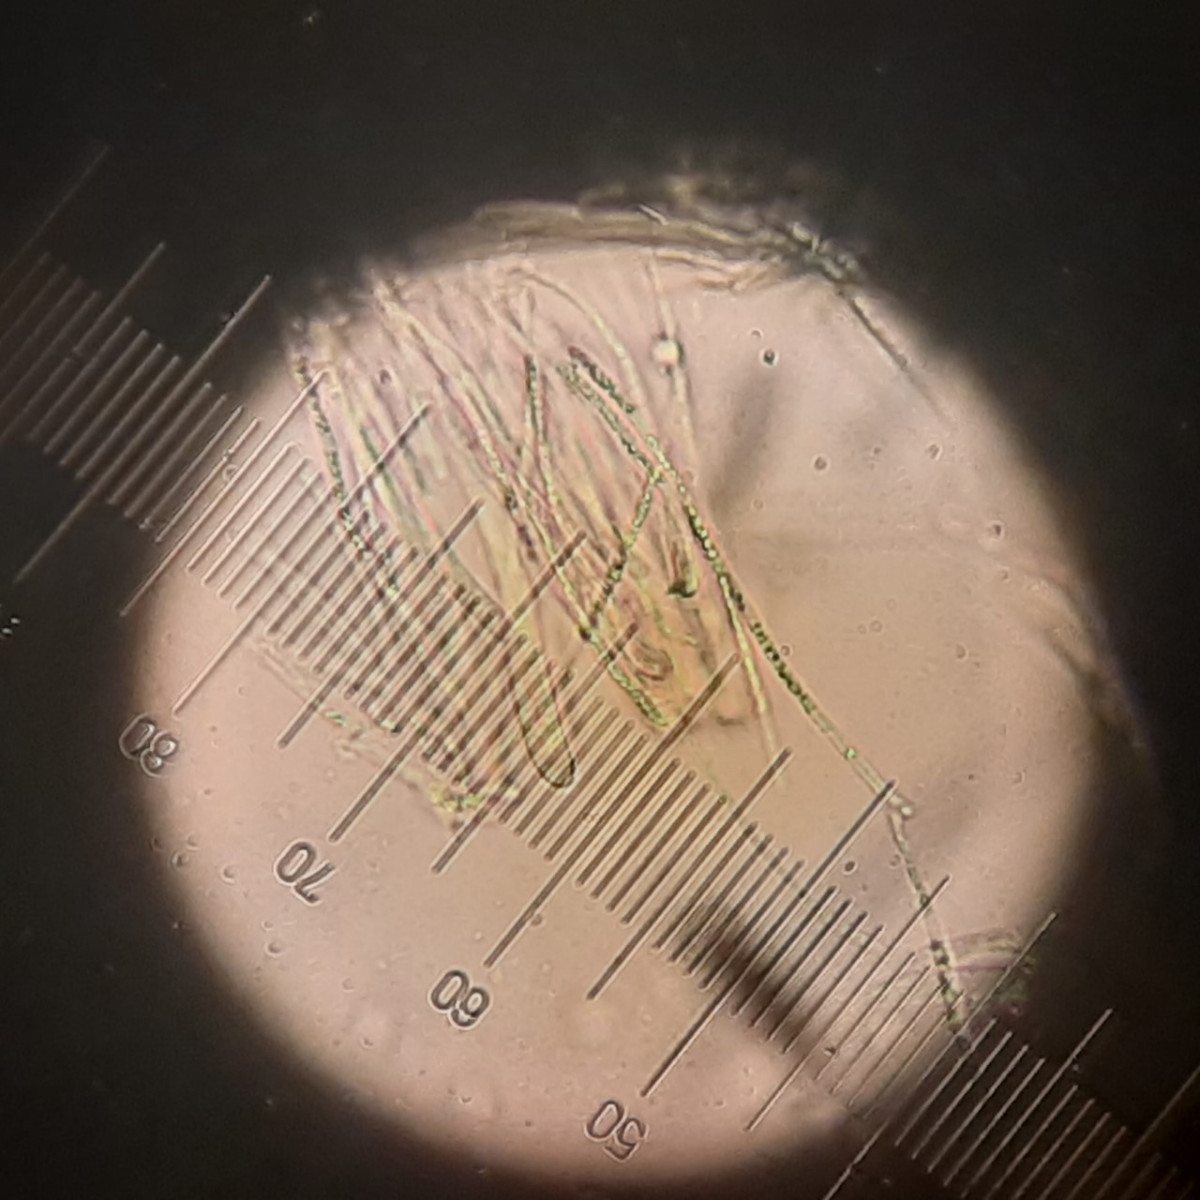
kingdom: Fungi
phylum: Ascomycota
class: Leotiomycetes
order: Helotiales
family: Helotiaceae
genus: Bisporella
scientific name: Bisporella subpallida
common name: lys snitskive
